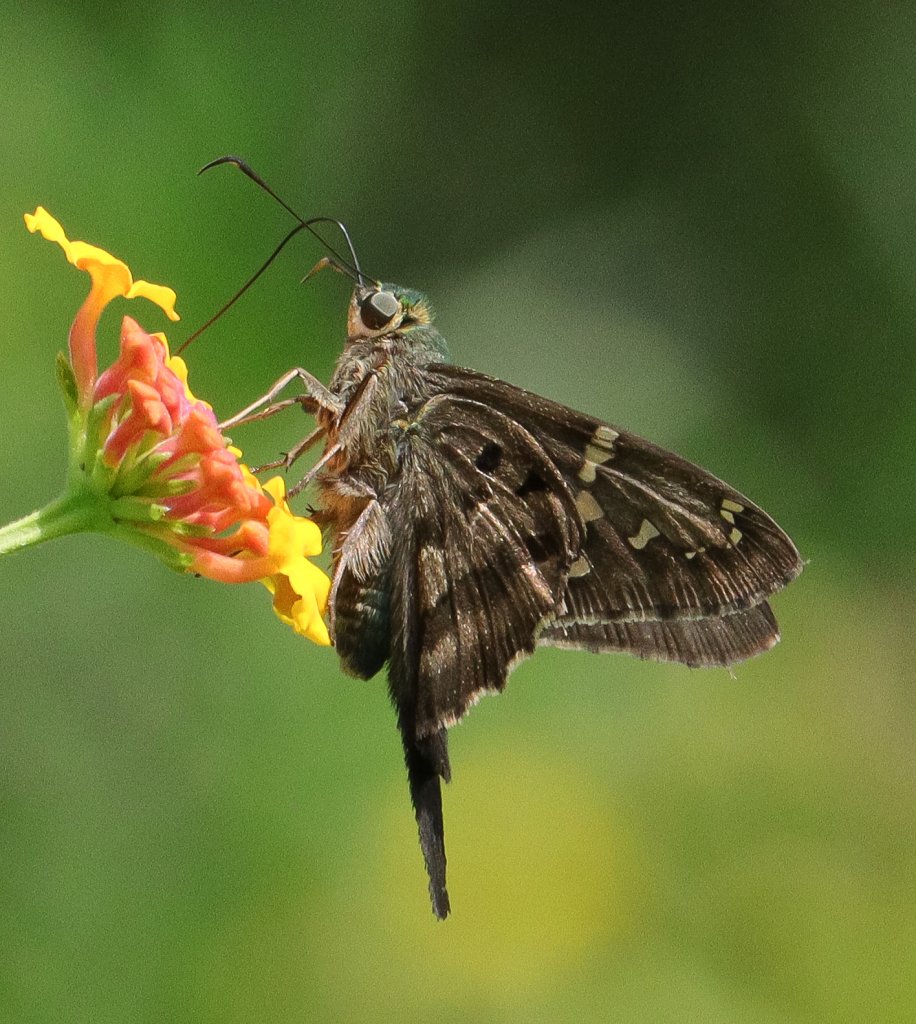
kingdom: Animalia
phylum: Arthropoda
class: Insecta
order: Lepidoptera
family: Hesperiidae
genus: Urbanus
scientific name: Urbanus proteus
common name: Long-tailed Skipper
